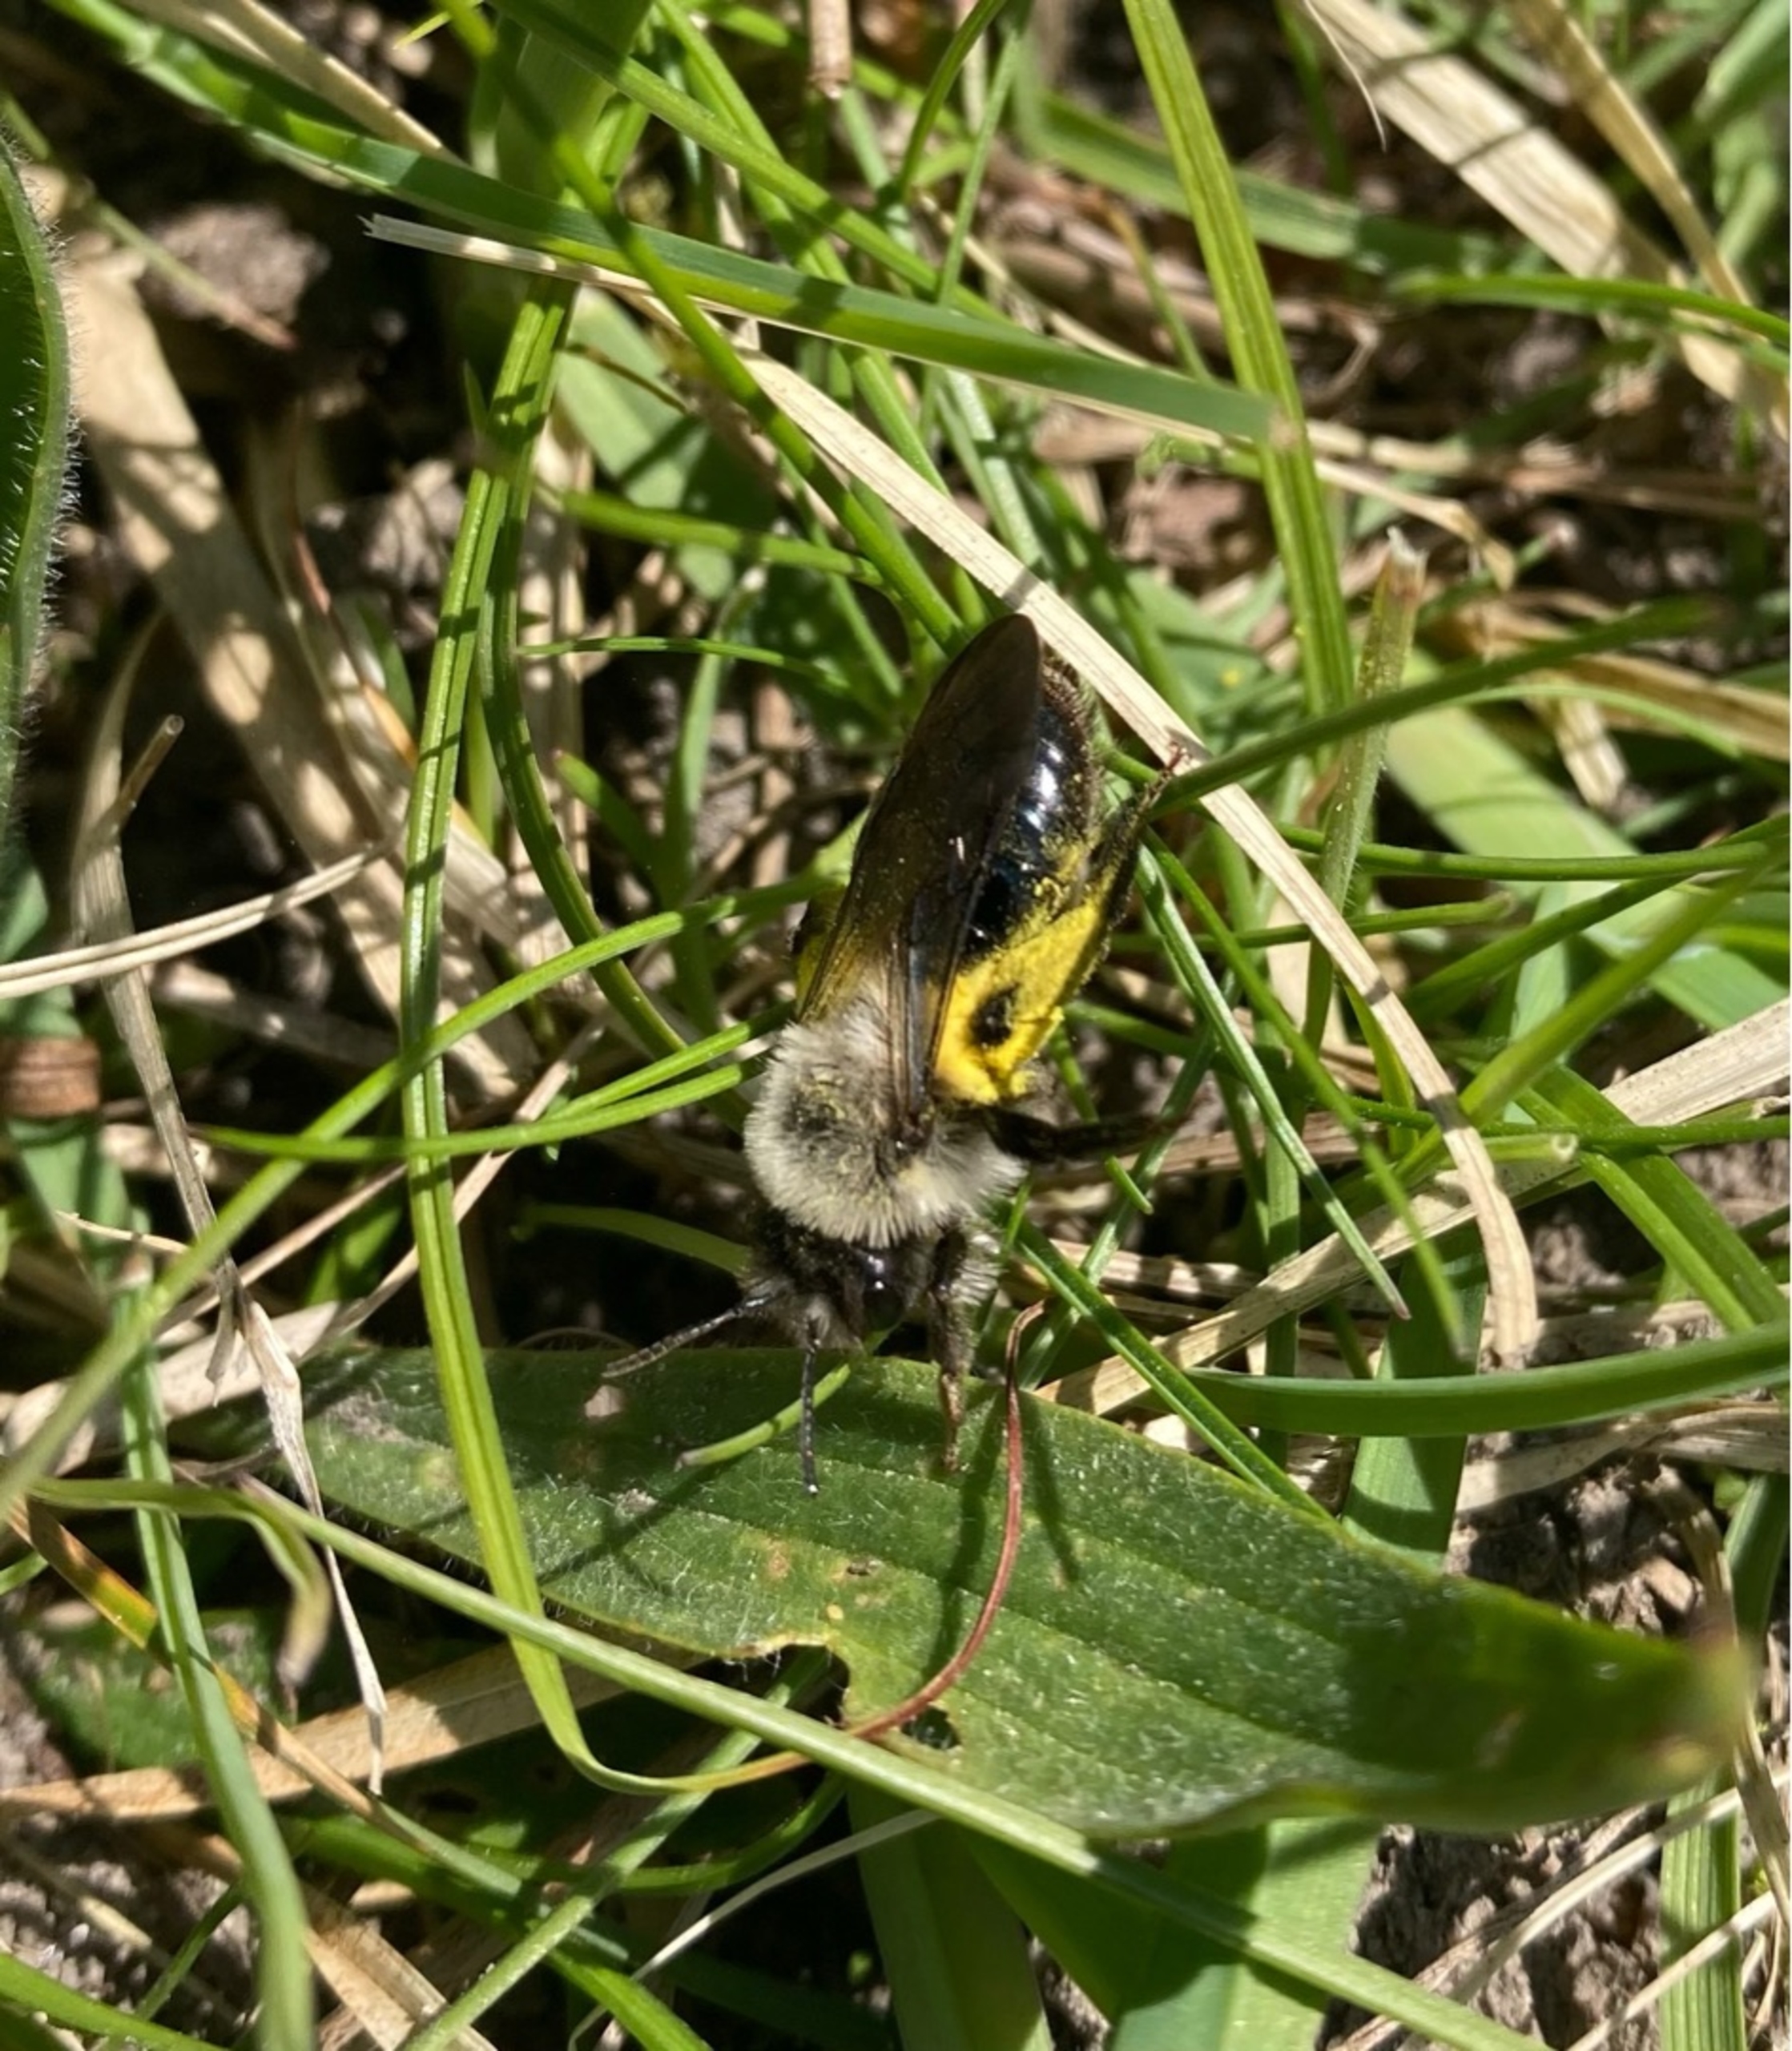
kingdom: Animalia
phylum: Arthropoda
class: Insecta
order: Hymenoptera
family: Andrenidae
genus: Andrena
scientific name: Andrena vaga
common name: Hvidbrystet jordbi
